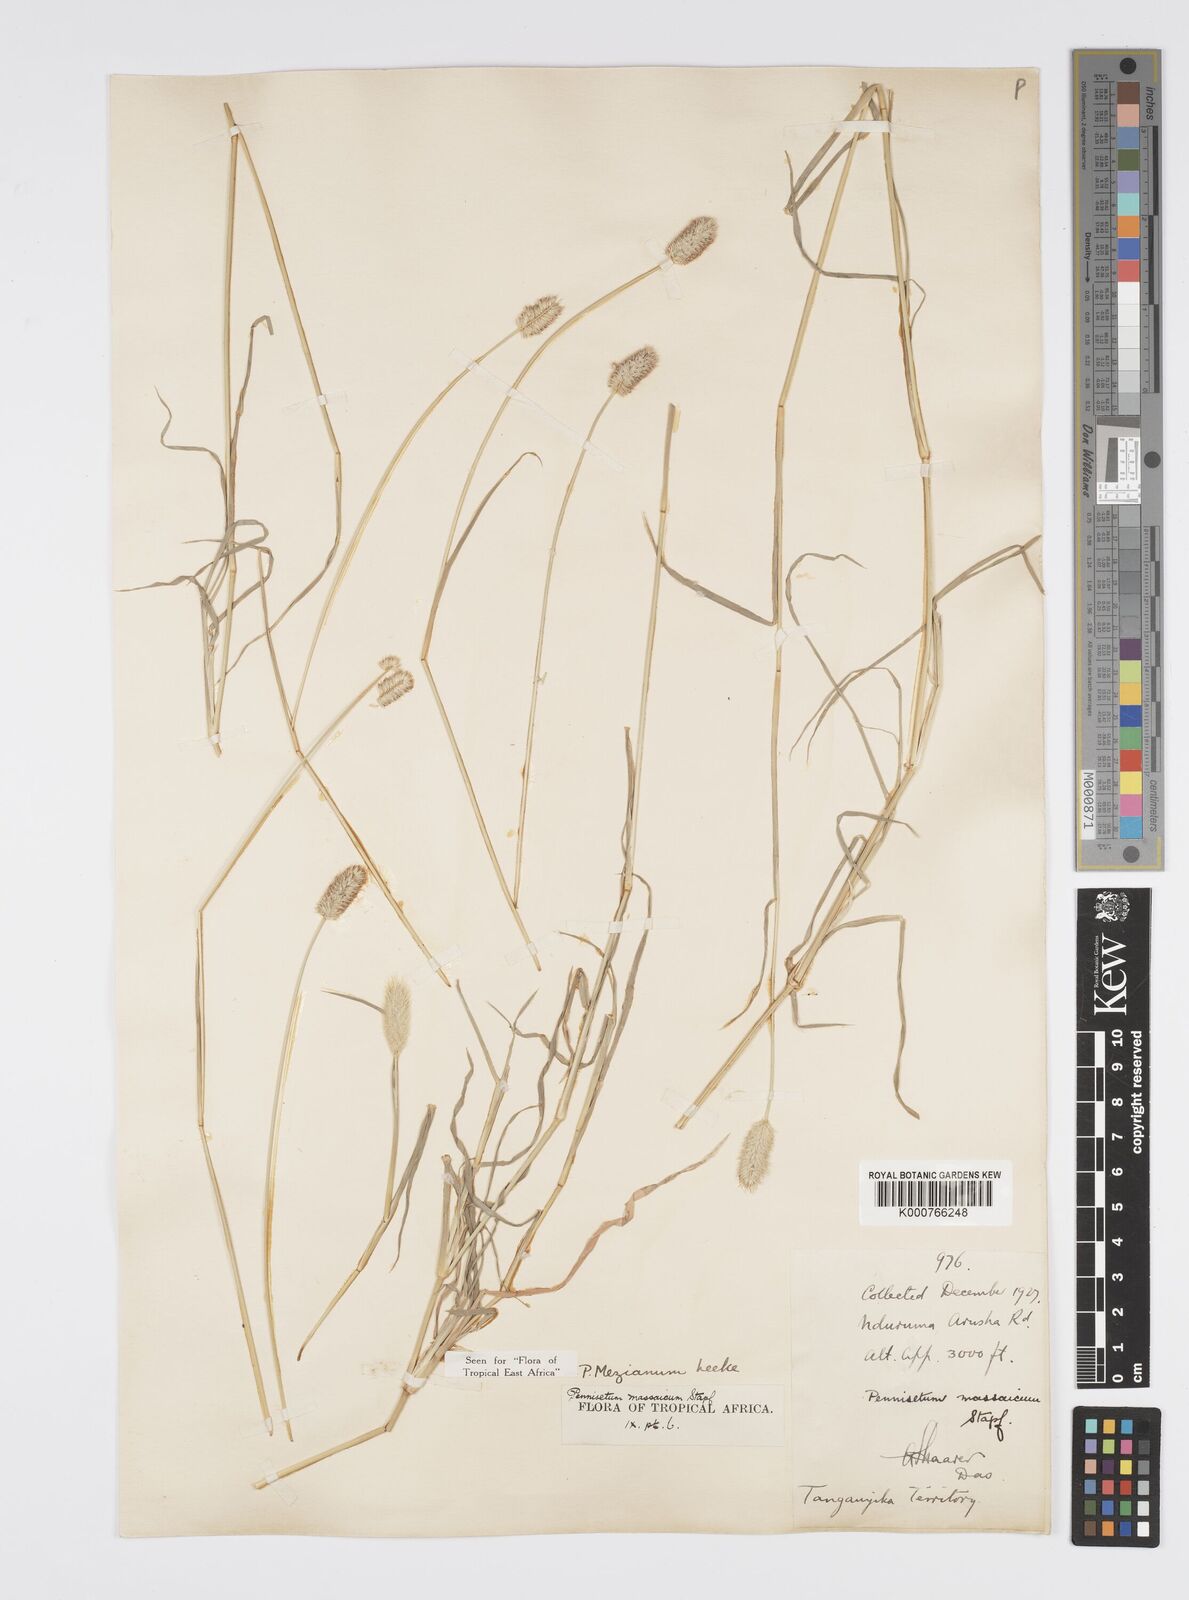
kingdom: Plantae
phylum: Tracheophyta
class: Liliopsida
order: Poales
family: Poaceae
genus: Cenchrus
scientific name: Cenchrus mezianus
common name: Bamboo grass
